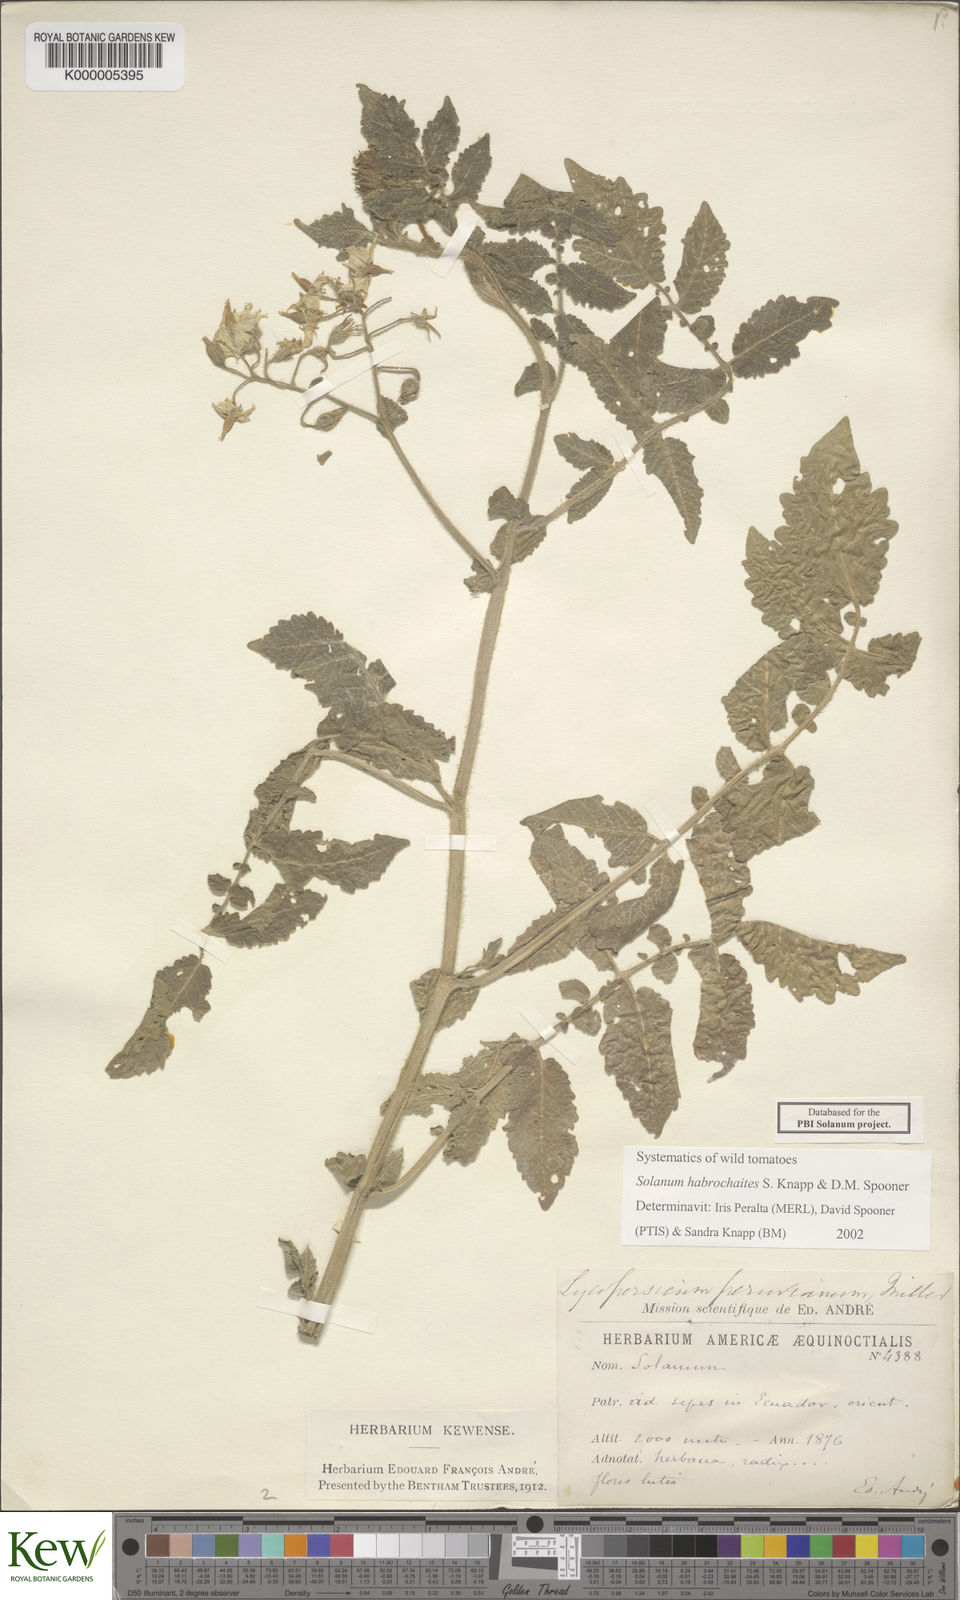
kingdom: Plantae
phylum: Tracheophyta
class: Magnoliopsida
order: Solanales
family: Solanaceae
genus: Solanum
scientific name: Solanum habrochaites
